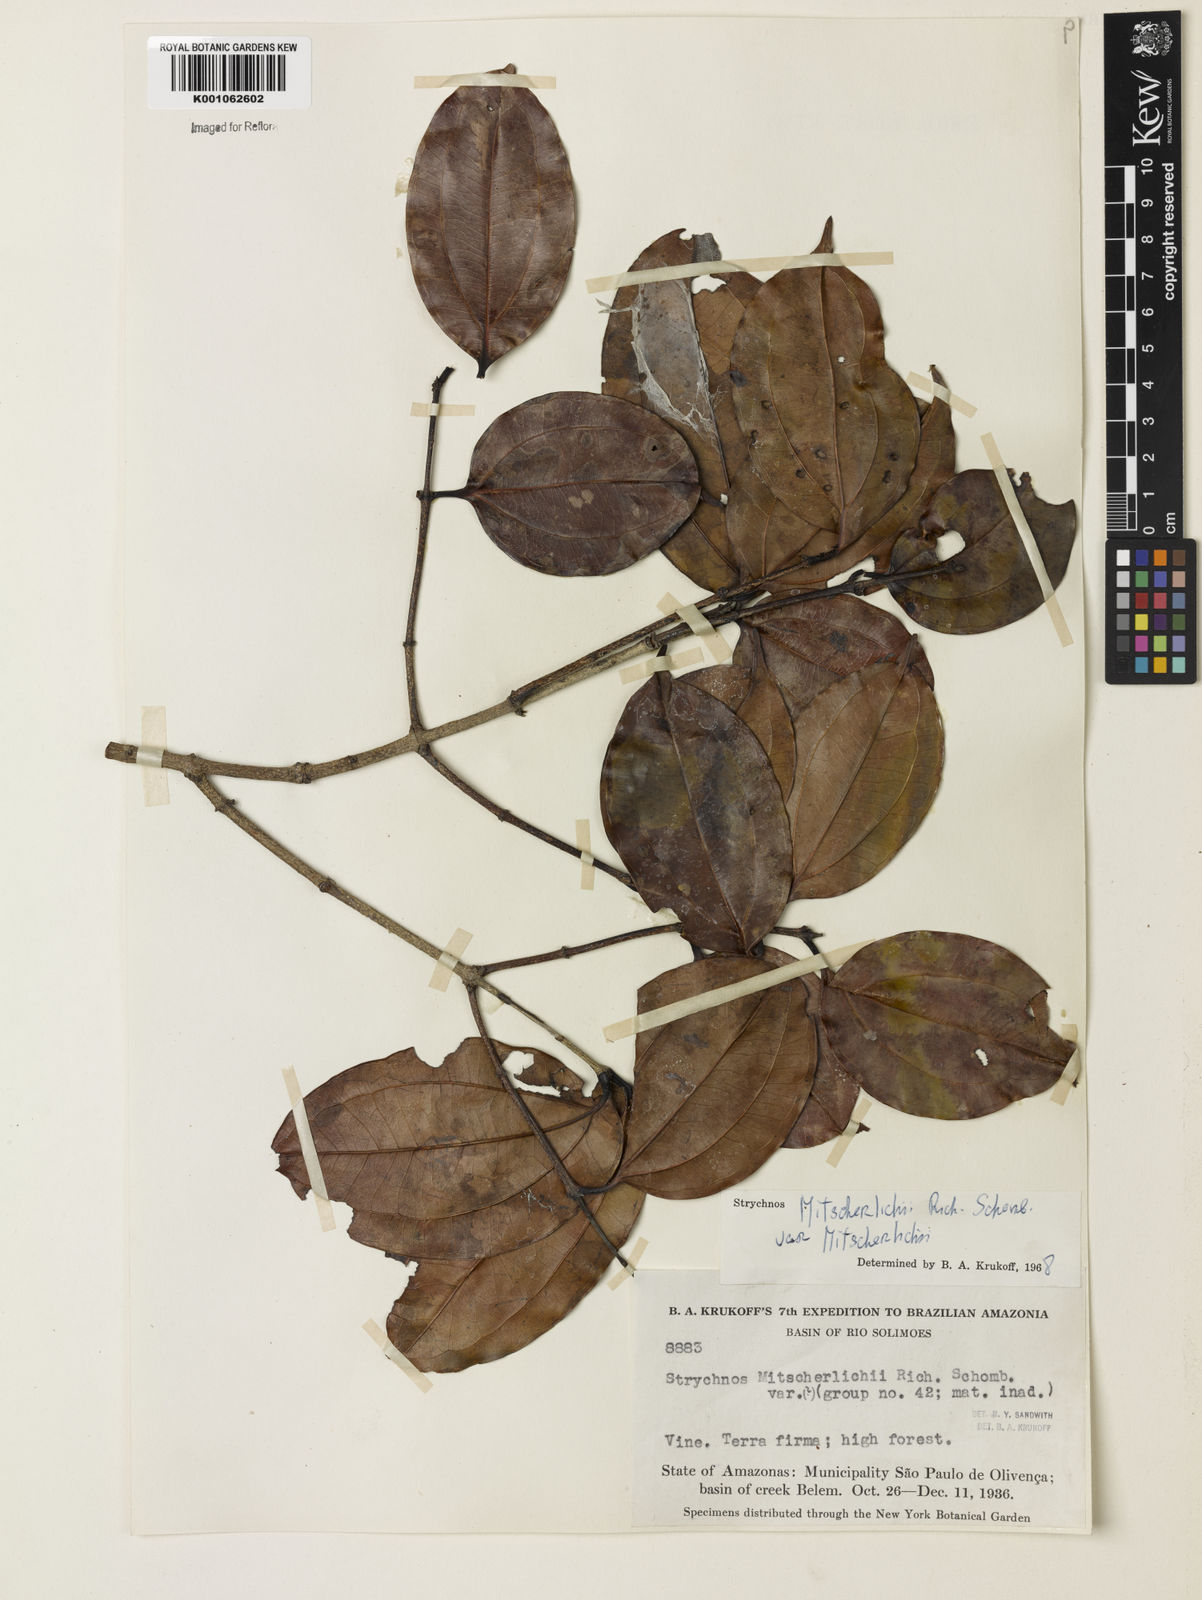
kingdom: Plantae
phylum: Tracheophyta
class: Magnoliopsida
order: Gentianales
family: Loganiaceae
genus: Strychnos
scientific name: Strychnos mitscherlichii
